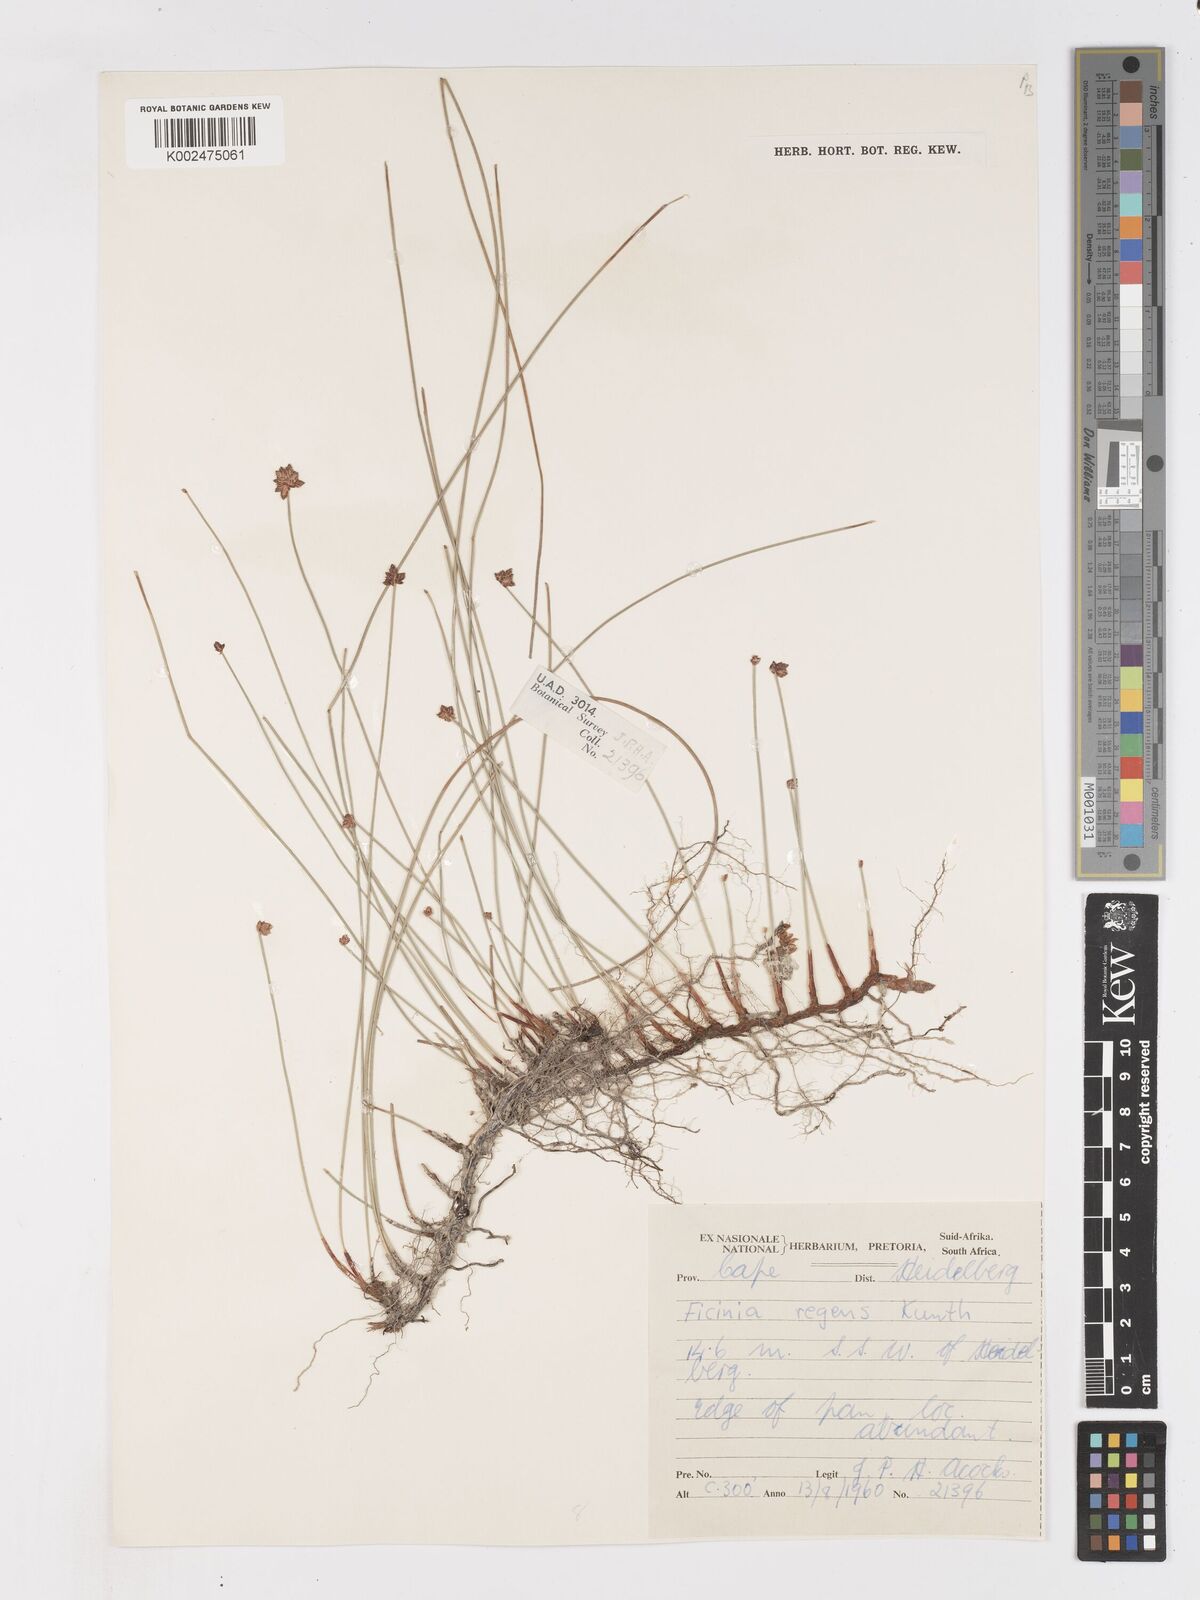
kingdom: Plantae
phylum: Tracheophyta
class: Liliopsida
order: Poales
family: Cyperaceae
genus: Ficinia
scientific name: Ficinia repens
